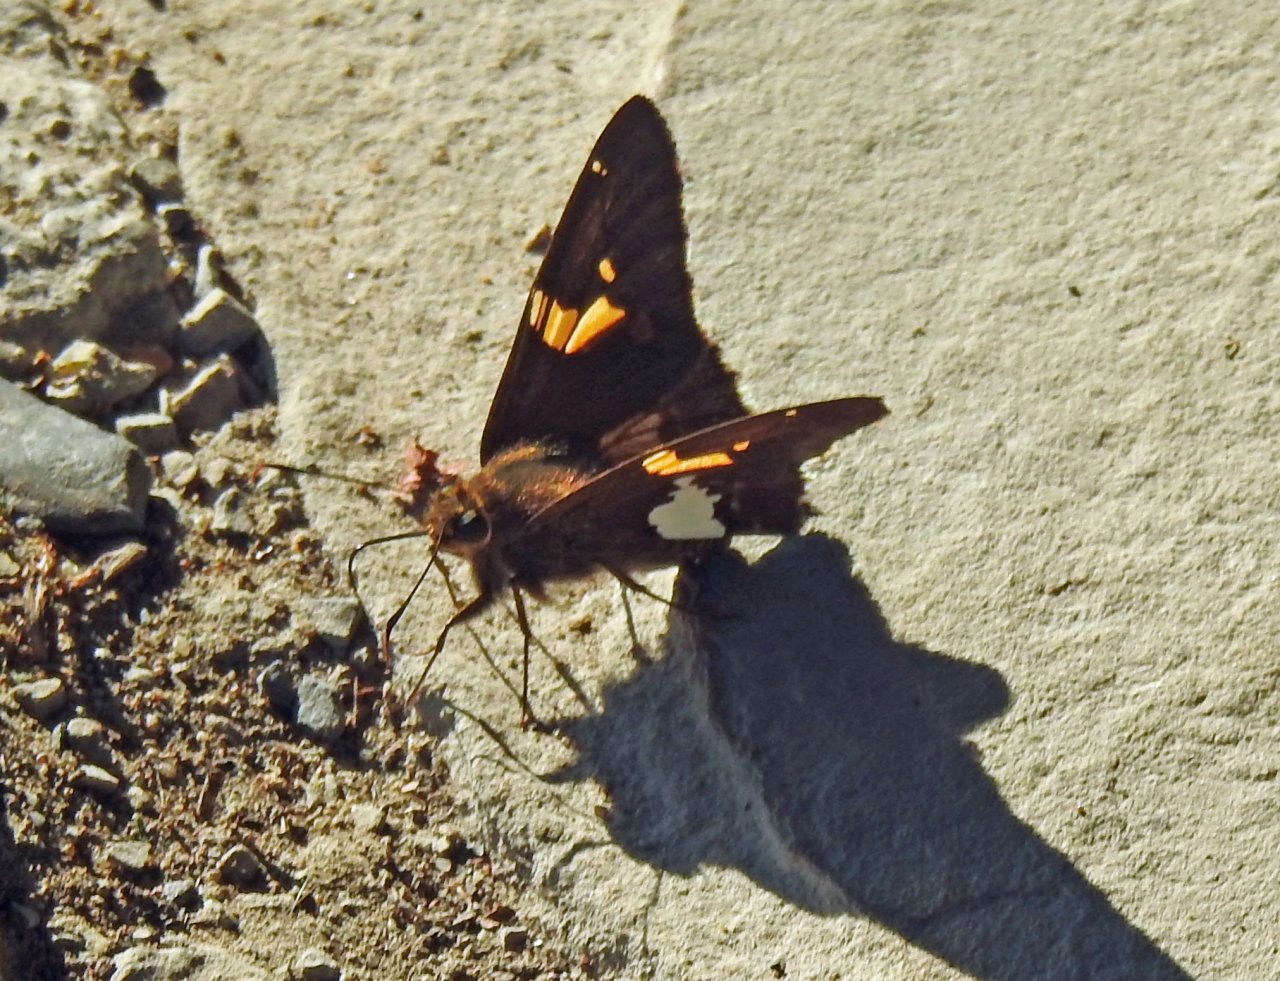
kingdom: Animalia
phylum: Arthropoda
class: Insecta
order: Lepidoptera
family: Hesperiidae
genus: Epargyreus
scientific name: Epargyreus clarus
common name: Silver-spotted Skipper
